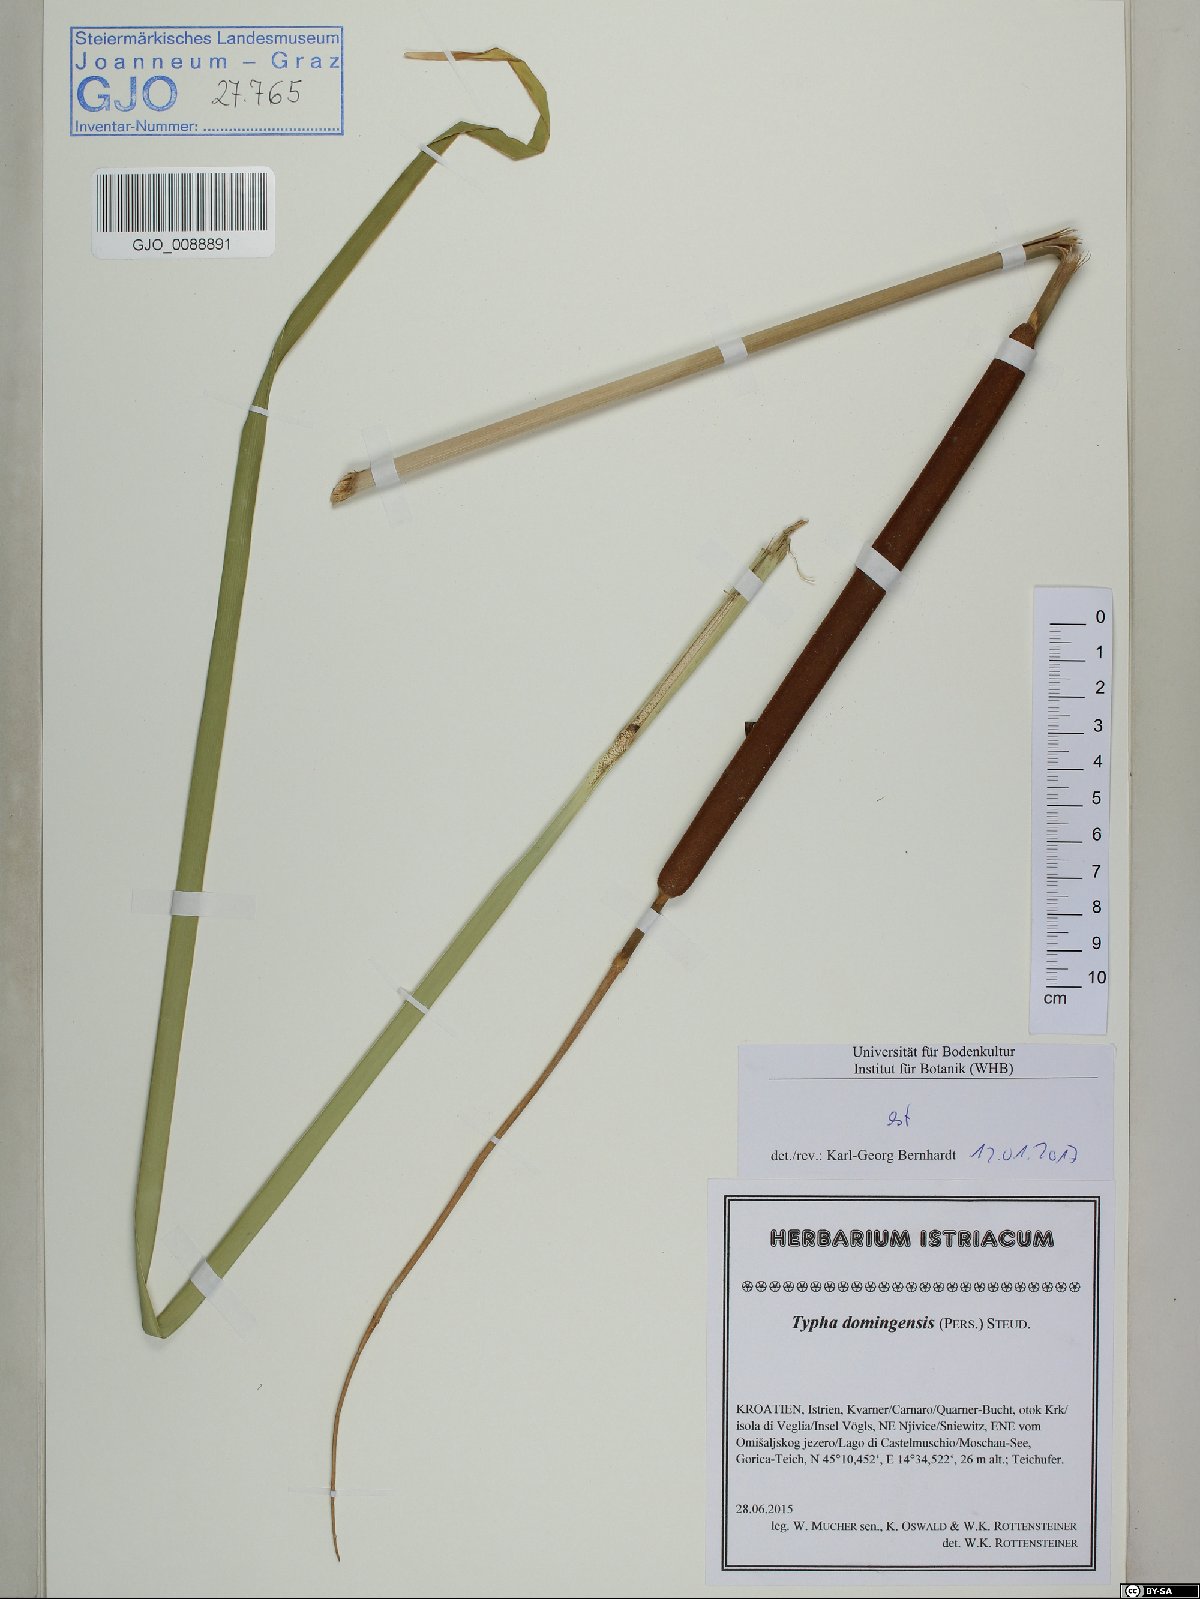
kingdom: Plantae
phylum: Tracheophyta
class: Liliopsida
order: Poales
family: Typhaceae
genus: Typha
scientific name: Typha domingensis
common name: Southern cattail
